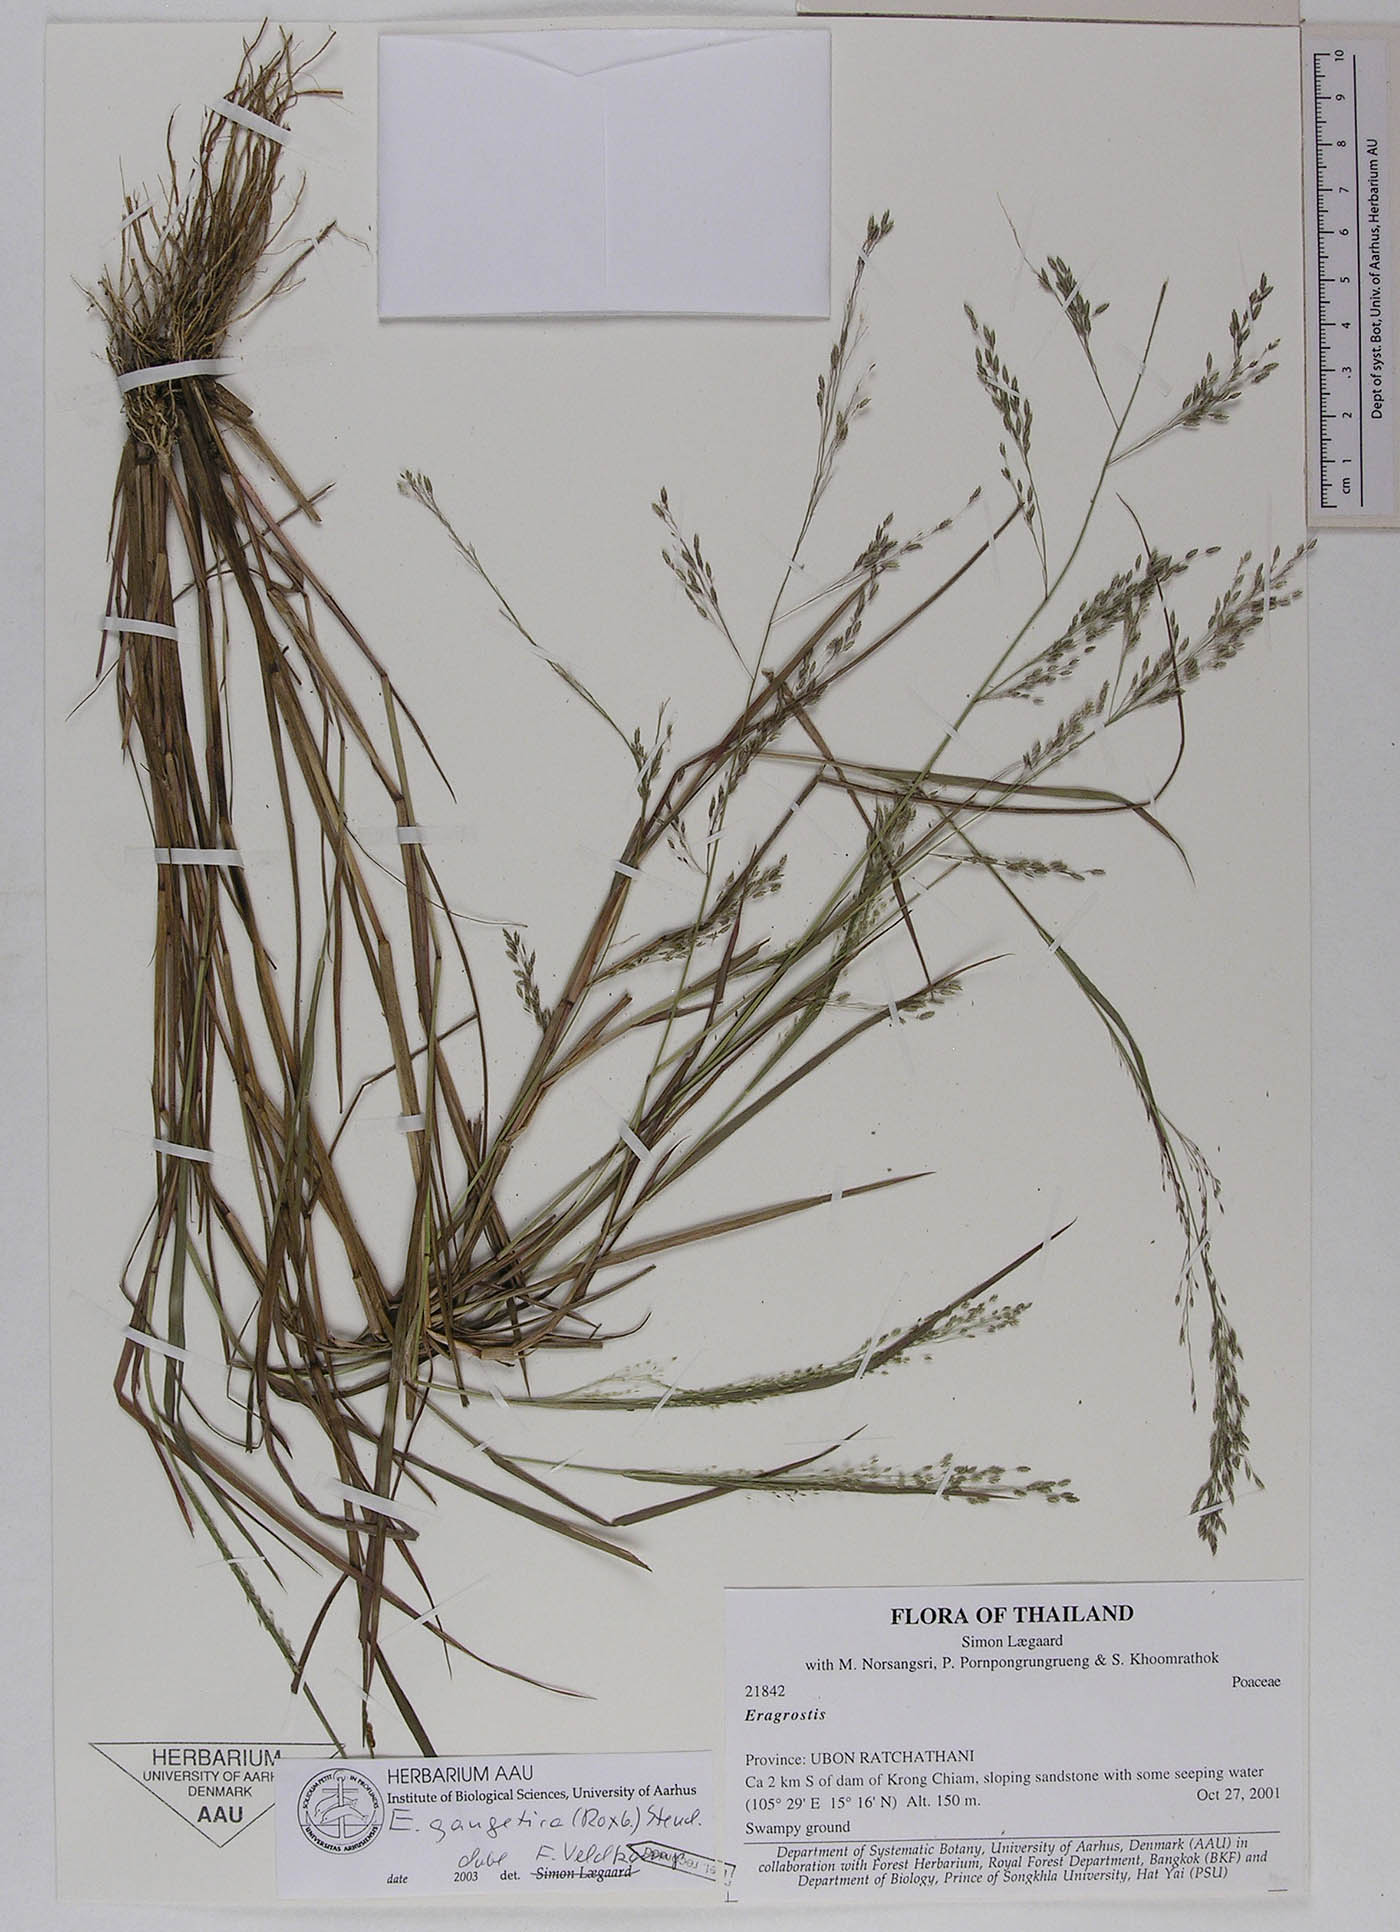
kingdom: Plantae
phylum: Tracheophyta
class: Liliopsida
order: Poales
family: Poaceae
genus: Eragrostis
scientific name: Eragrostis gangetica
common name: Slimflower lovegrass
